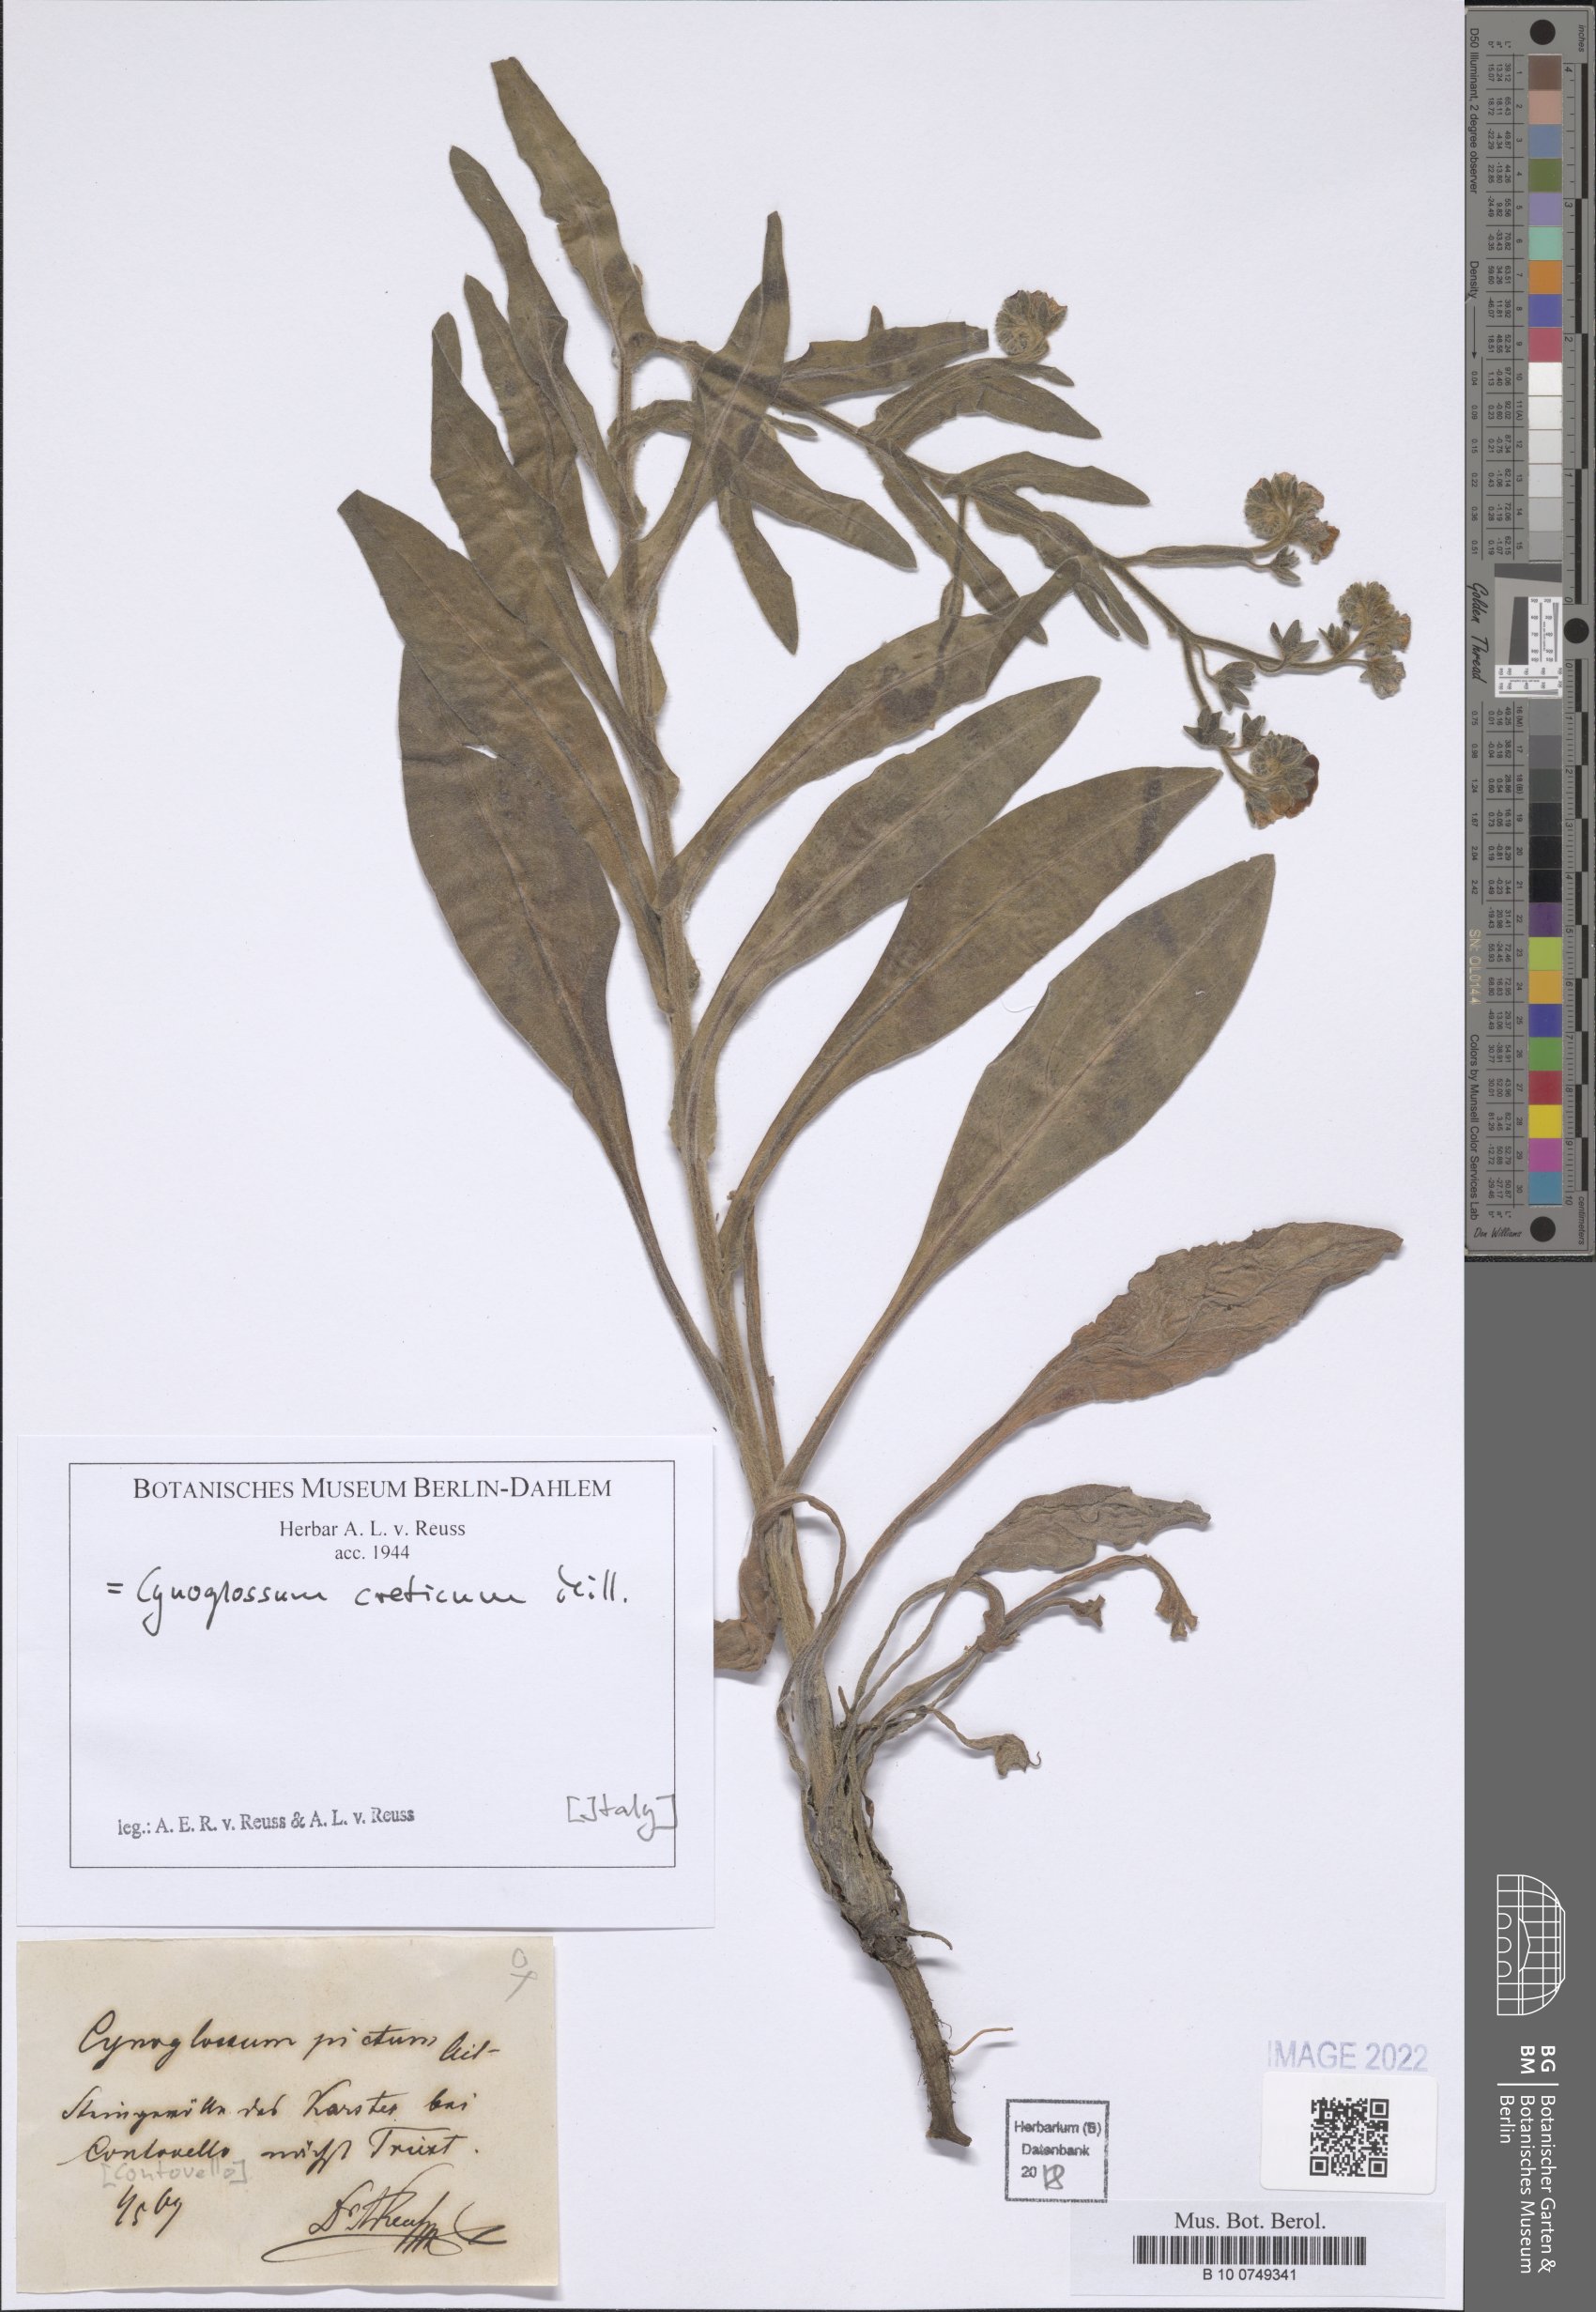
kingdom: Plantae
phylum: Tracheophyta
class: Magnoliopsida
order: Boraginales
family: Boraginaceae
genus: Cynoglossum
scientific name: Cynoglossum creticum
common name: Blue hound's tongue
